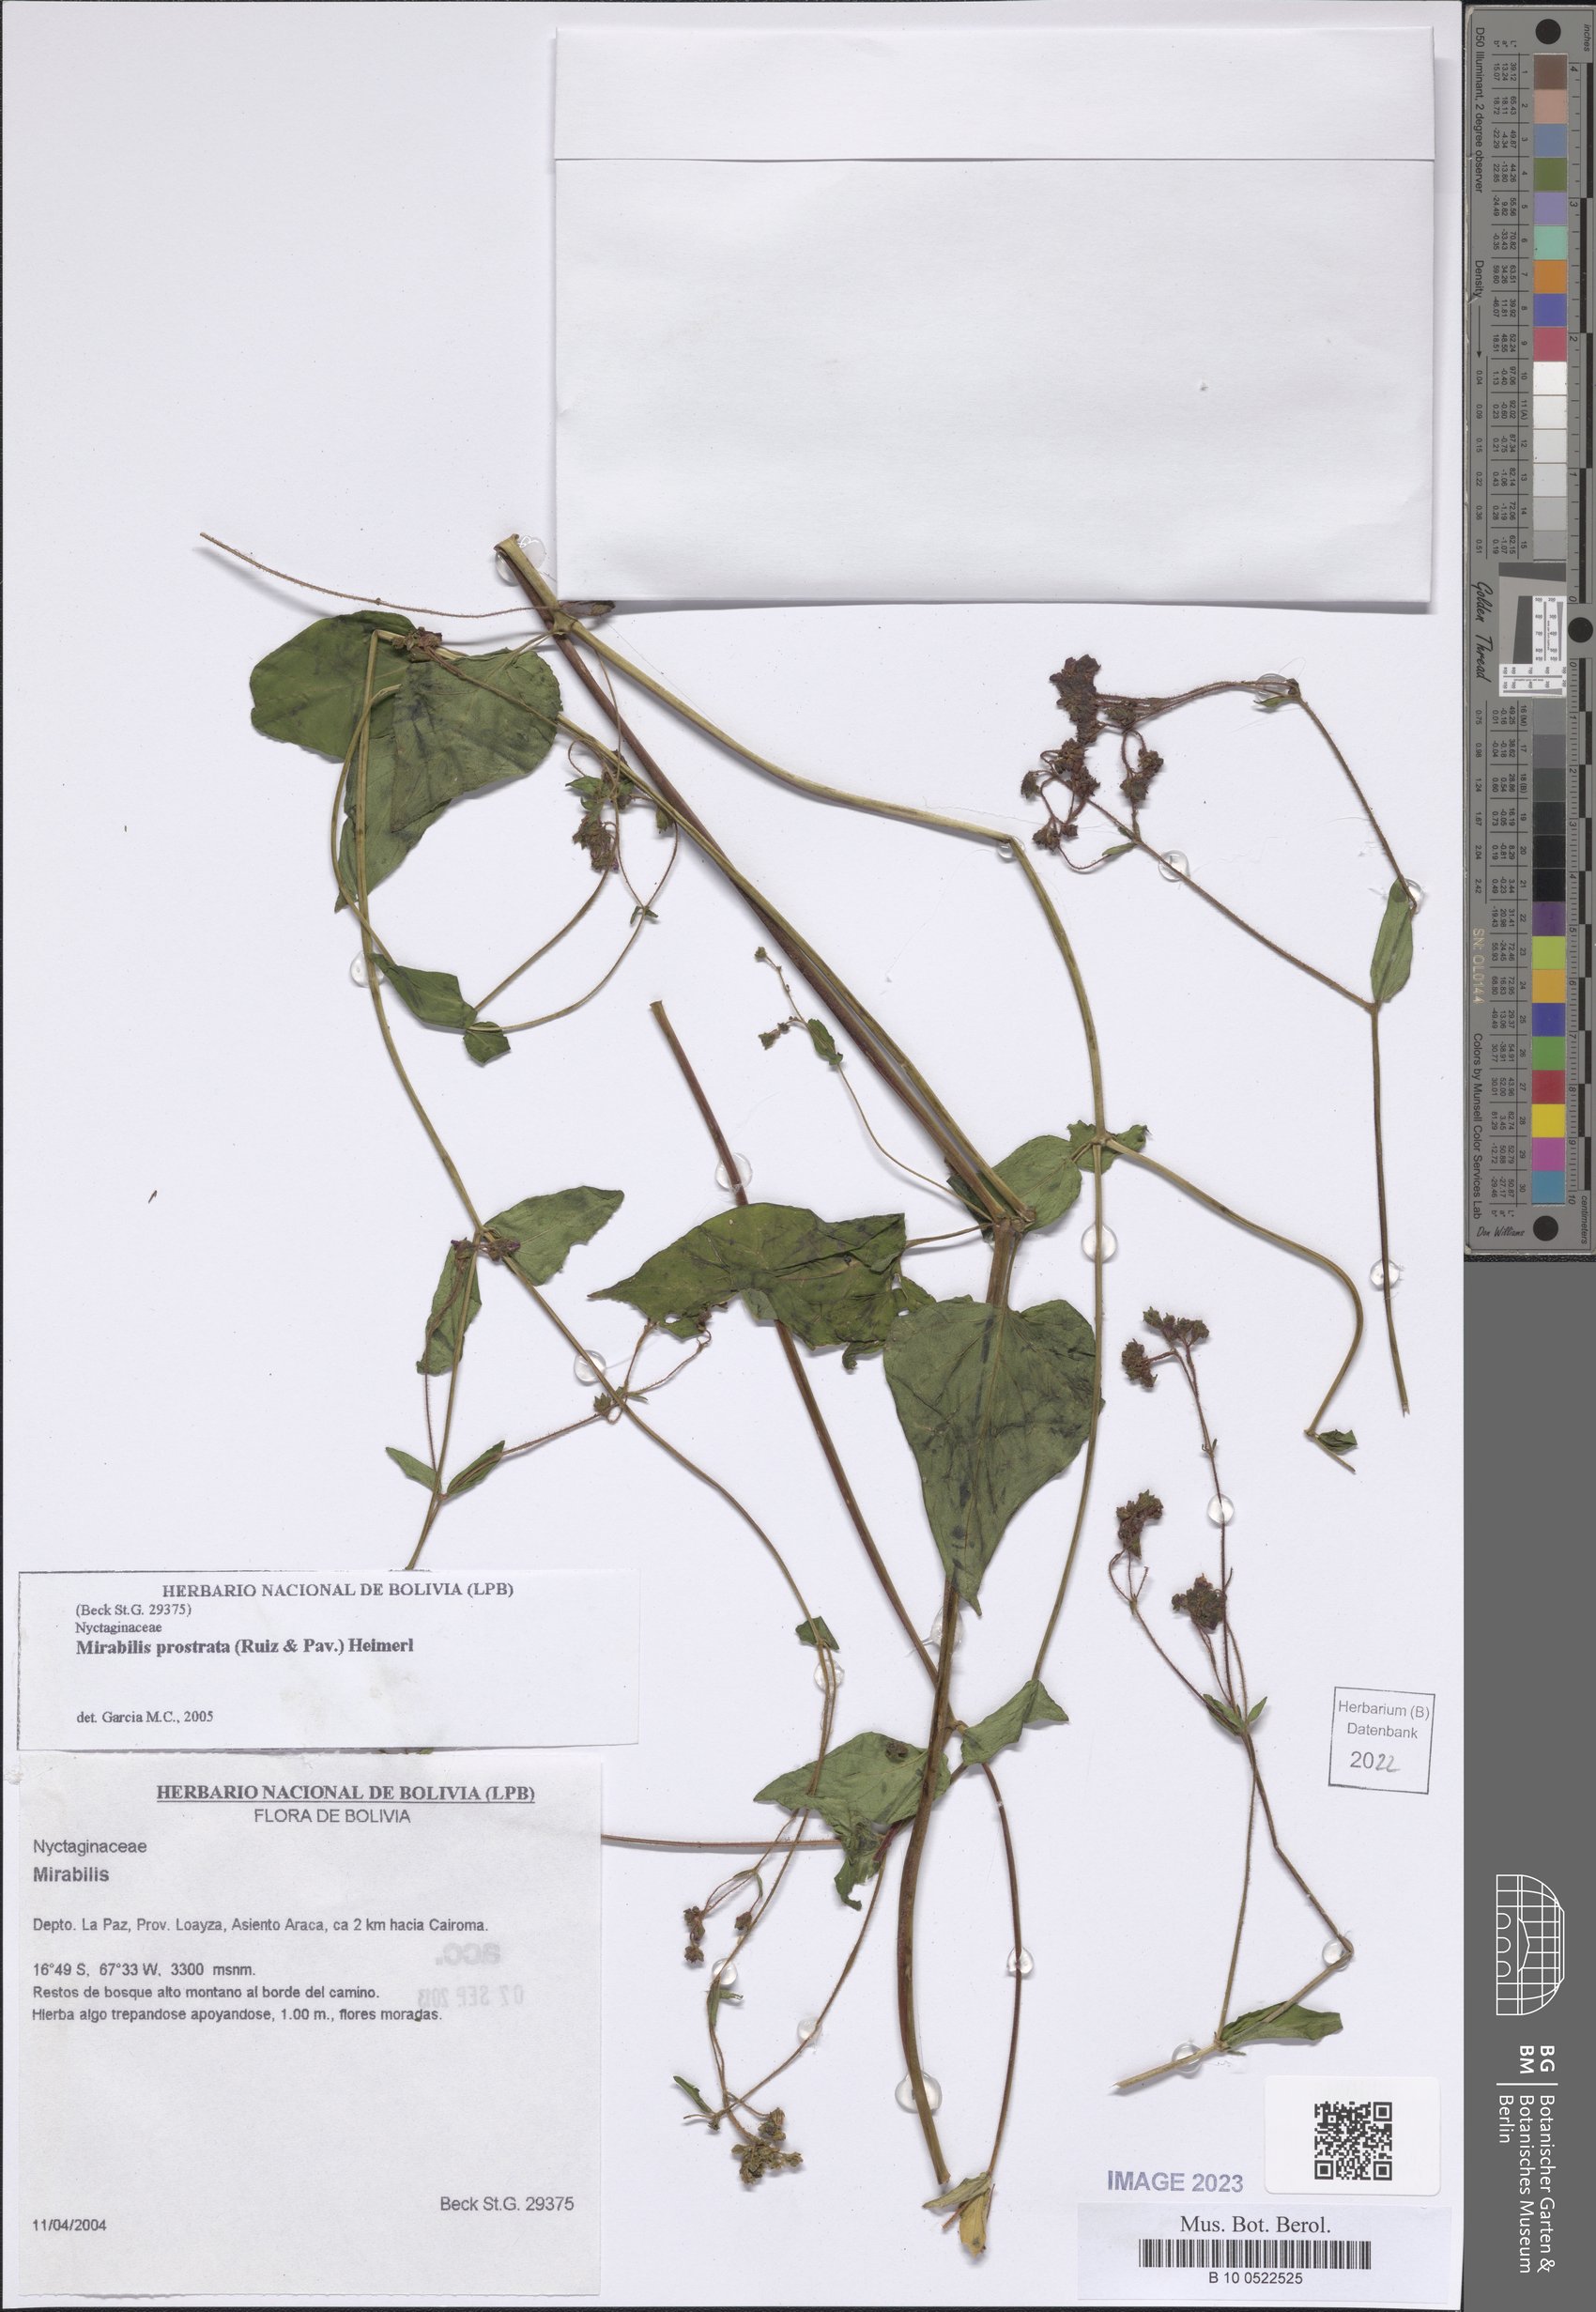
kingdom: Plantae
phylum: Tracheophyta
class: Magnoliopsida
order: Caryophyllales
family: Nyctaginaceae
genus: Mirabilis
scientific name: Mirabilis prostrata
